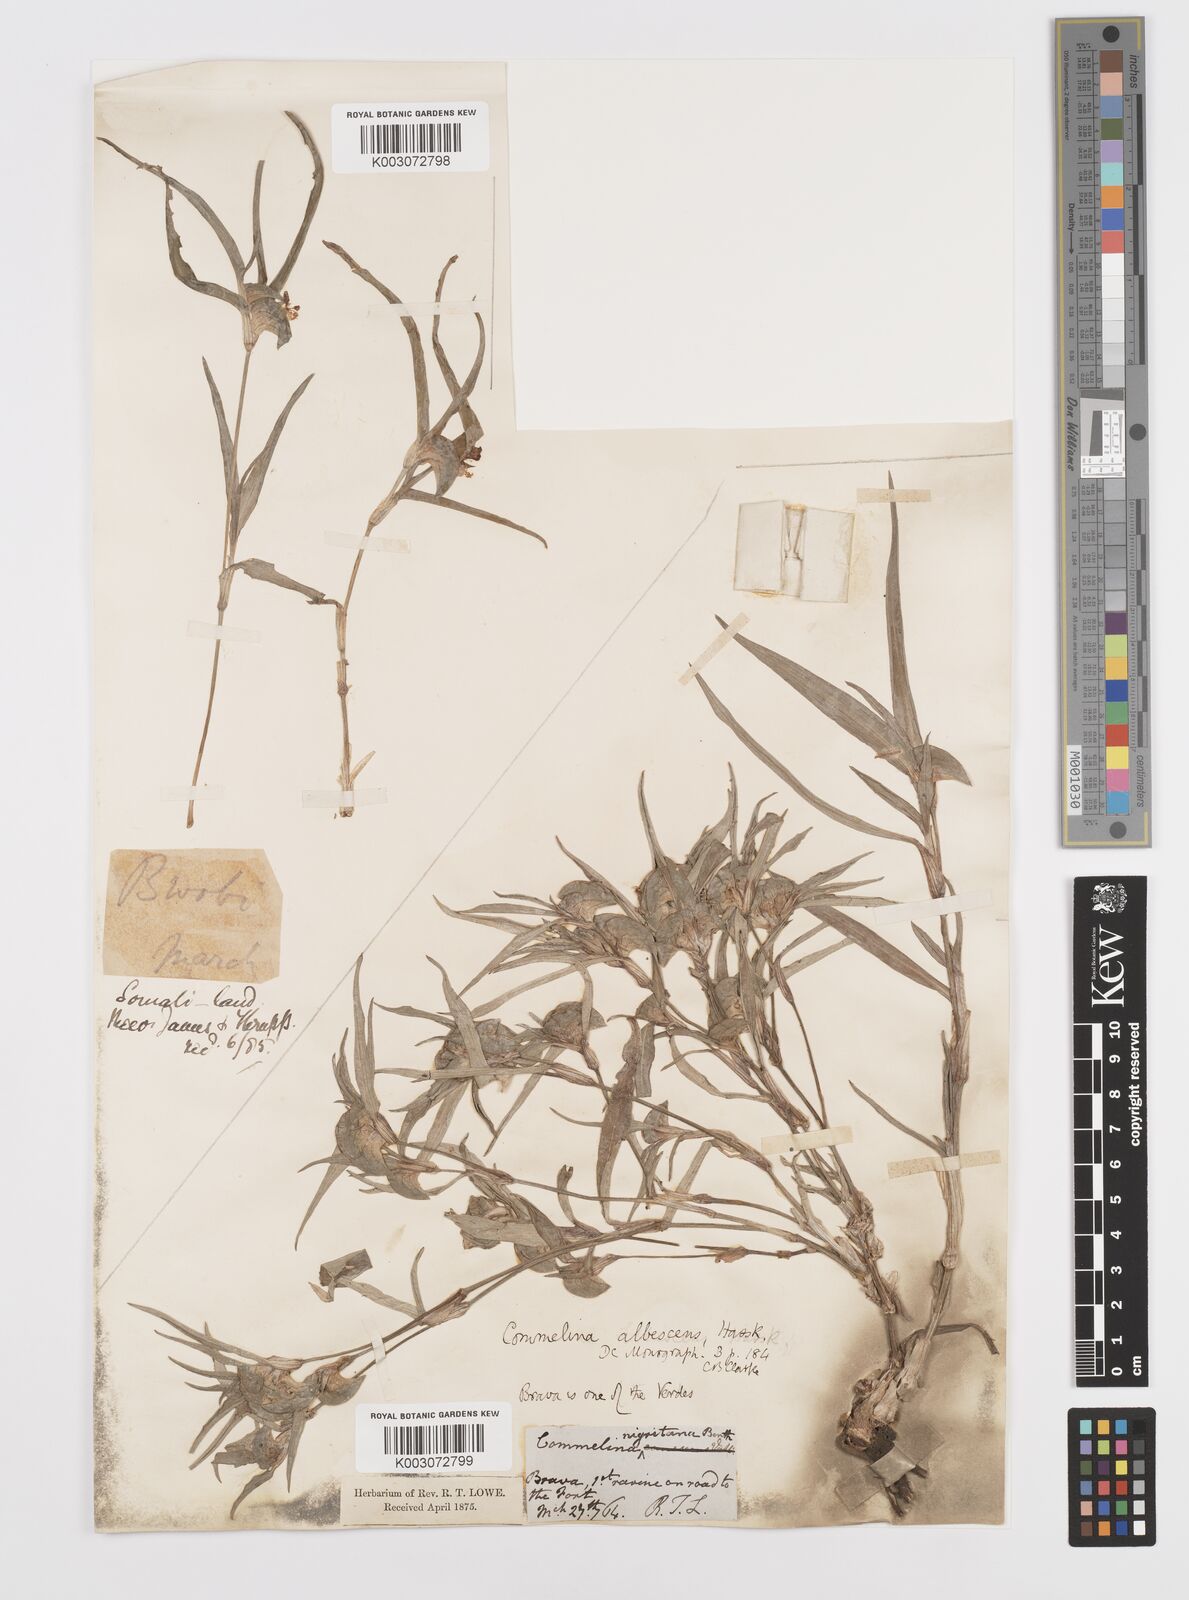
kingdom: Plantae
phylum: Tracheophyta
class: Liliopsida
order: Commelinales
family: Commelinaceae
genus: Commelina
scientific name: Commelina albescens
